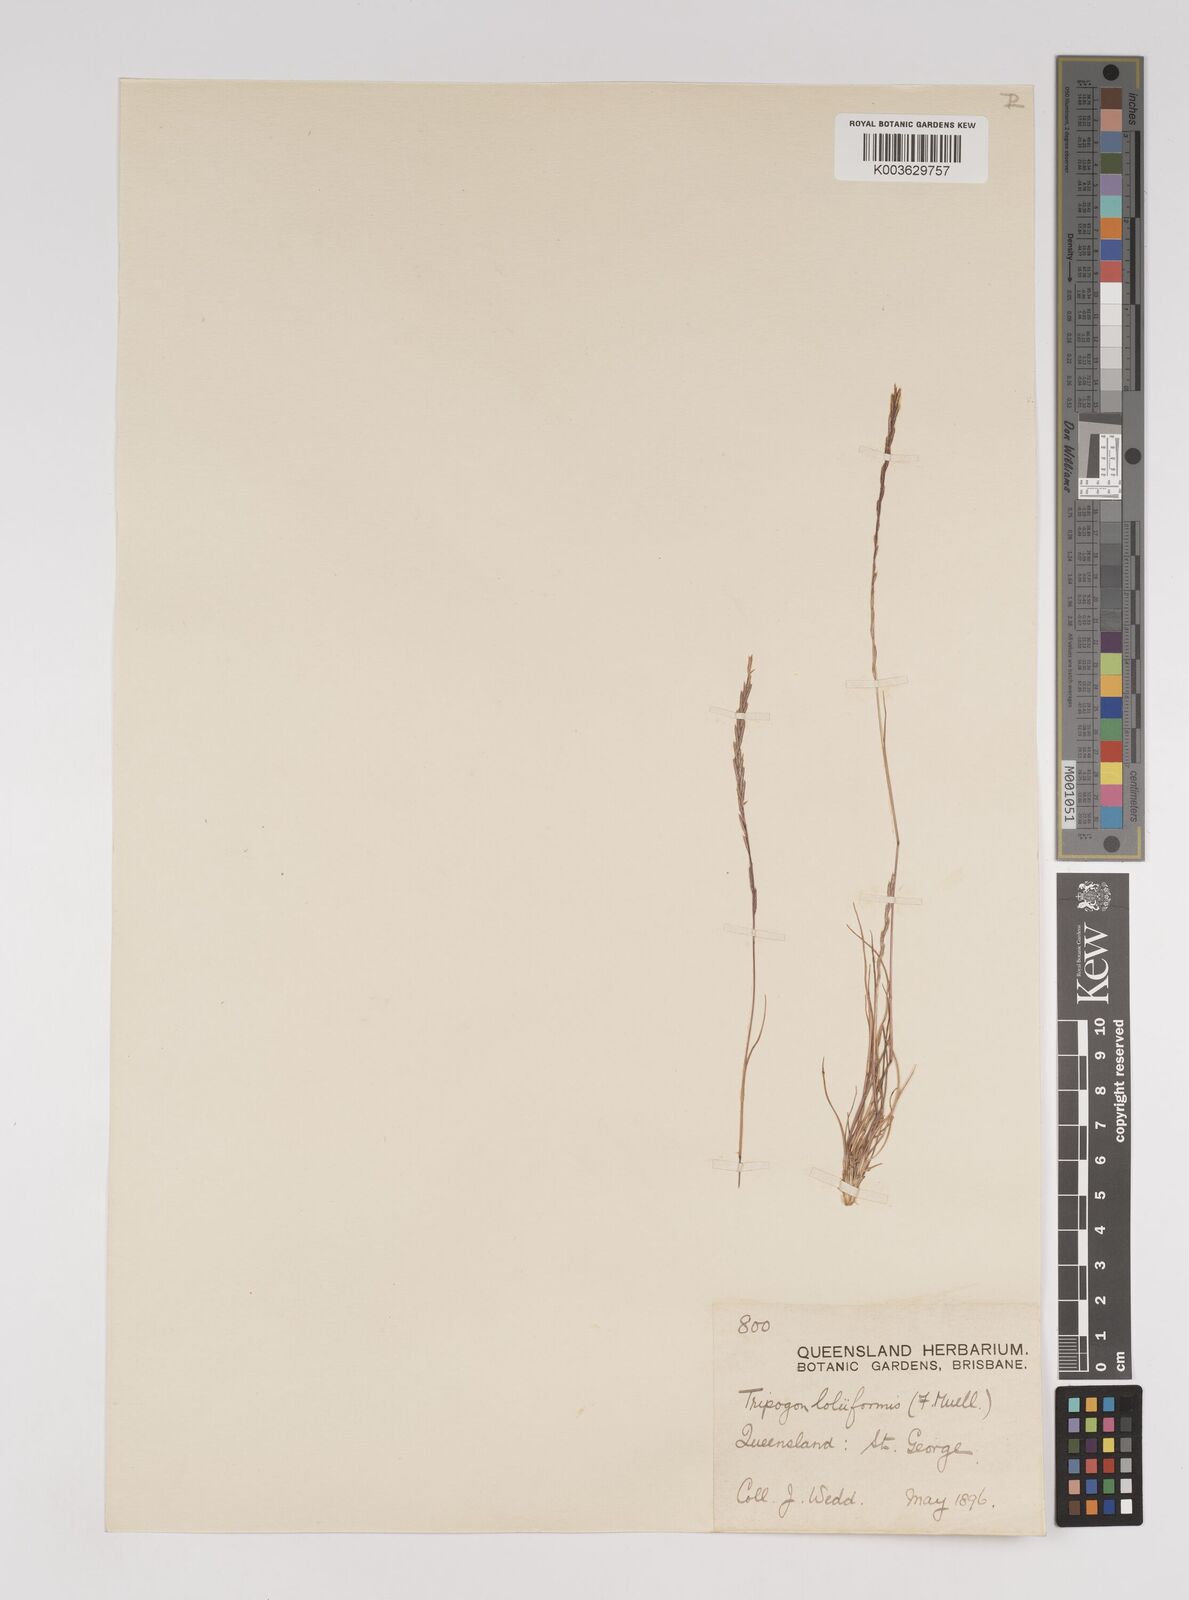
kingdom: Plantae
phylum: Tracheophyta
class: Liliopsida
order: Poales
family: Poaceae
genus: Tripogonella
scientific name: Tripogonella loliiformis
